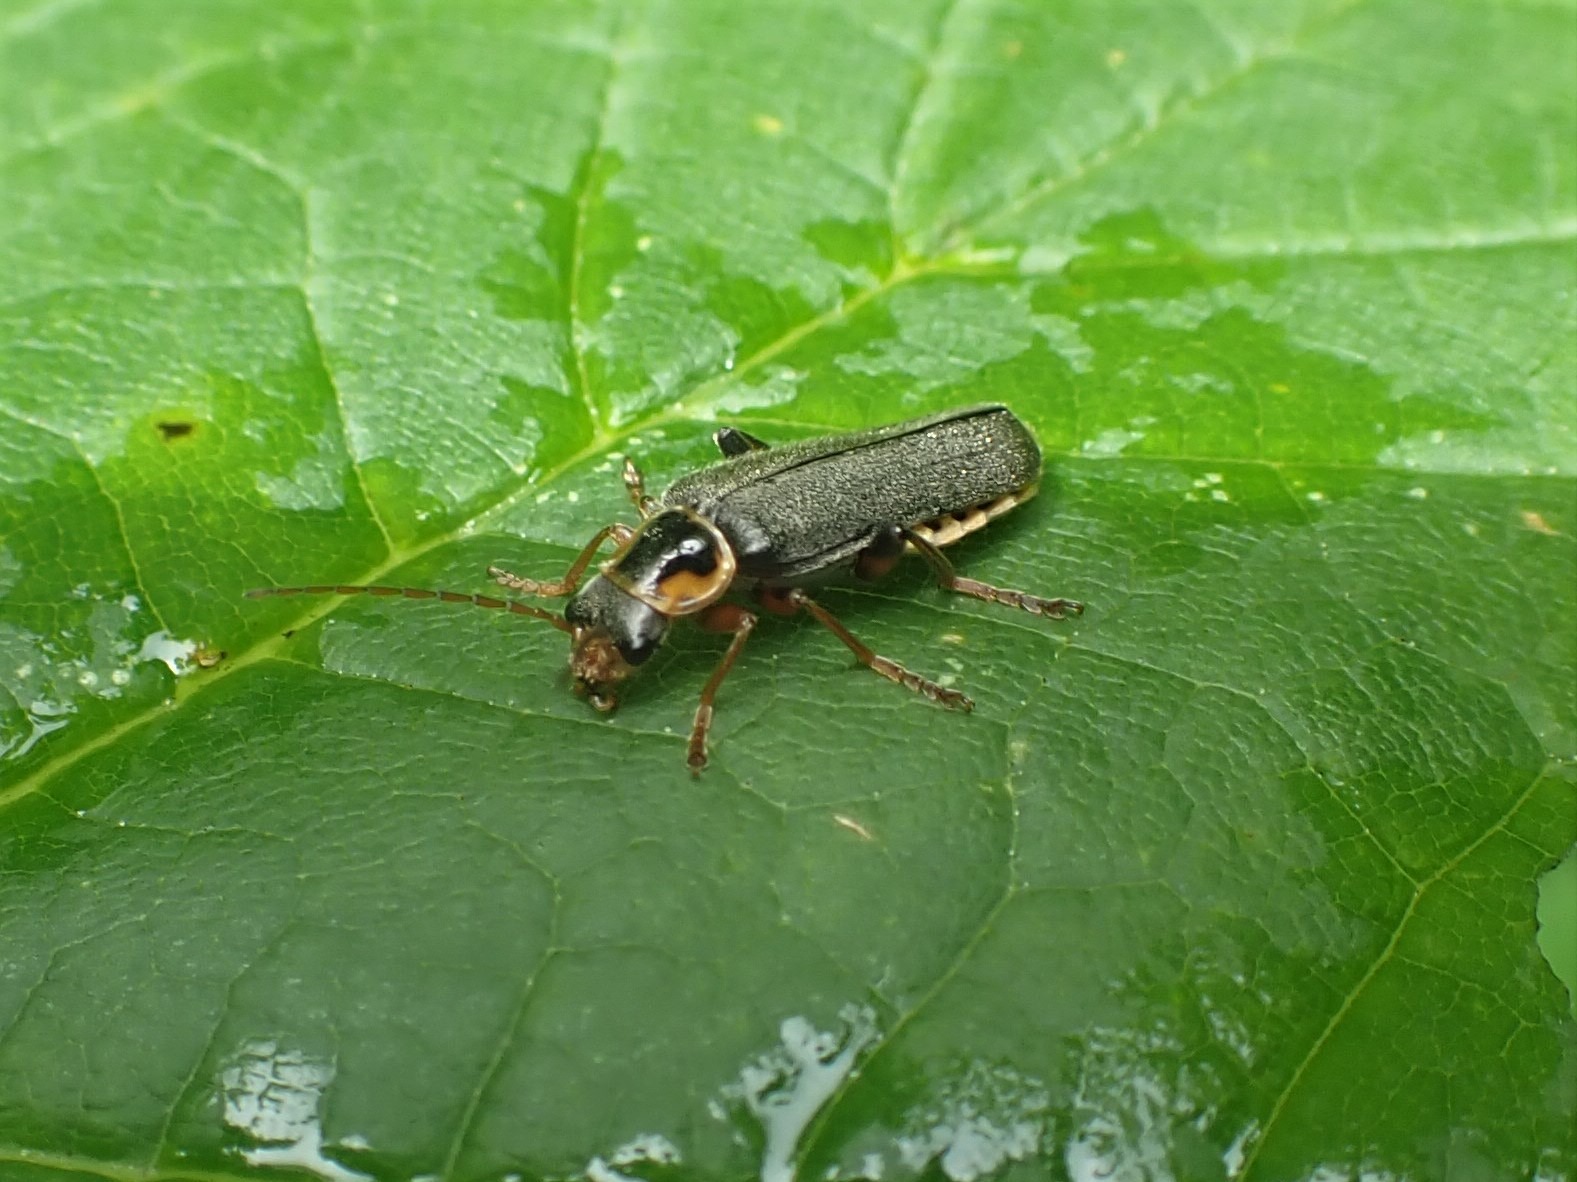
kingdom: Animalia
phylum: Arthropoda
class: Insecta
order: Coleoptera
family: Cantharidae
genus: Cantharis
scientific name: Cantharis nigricans
